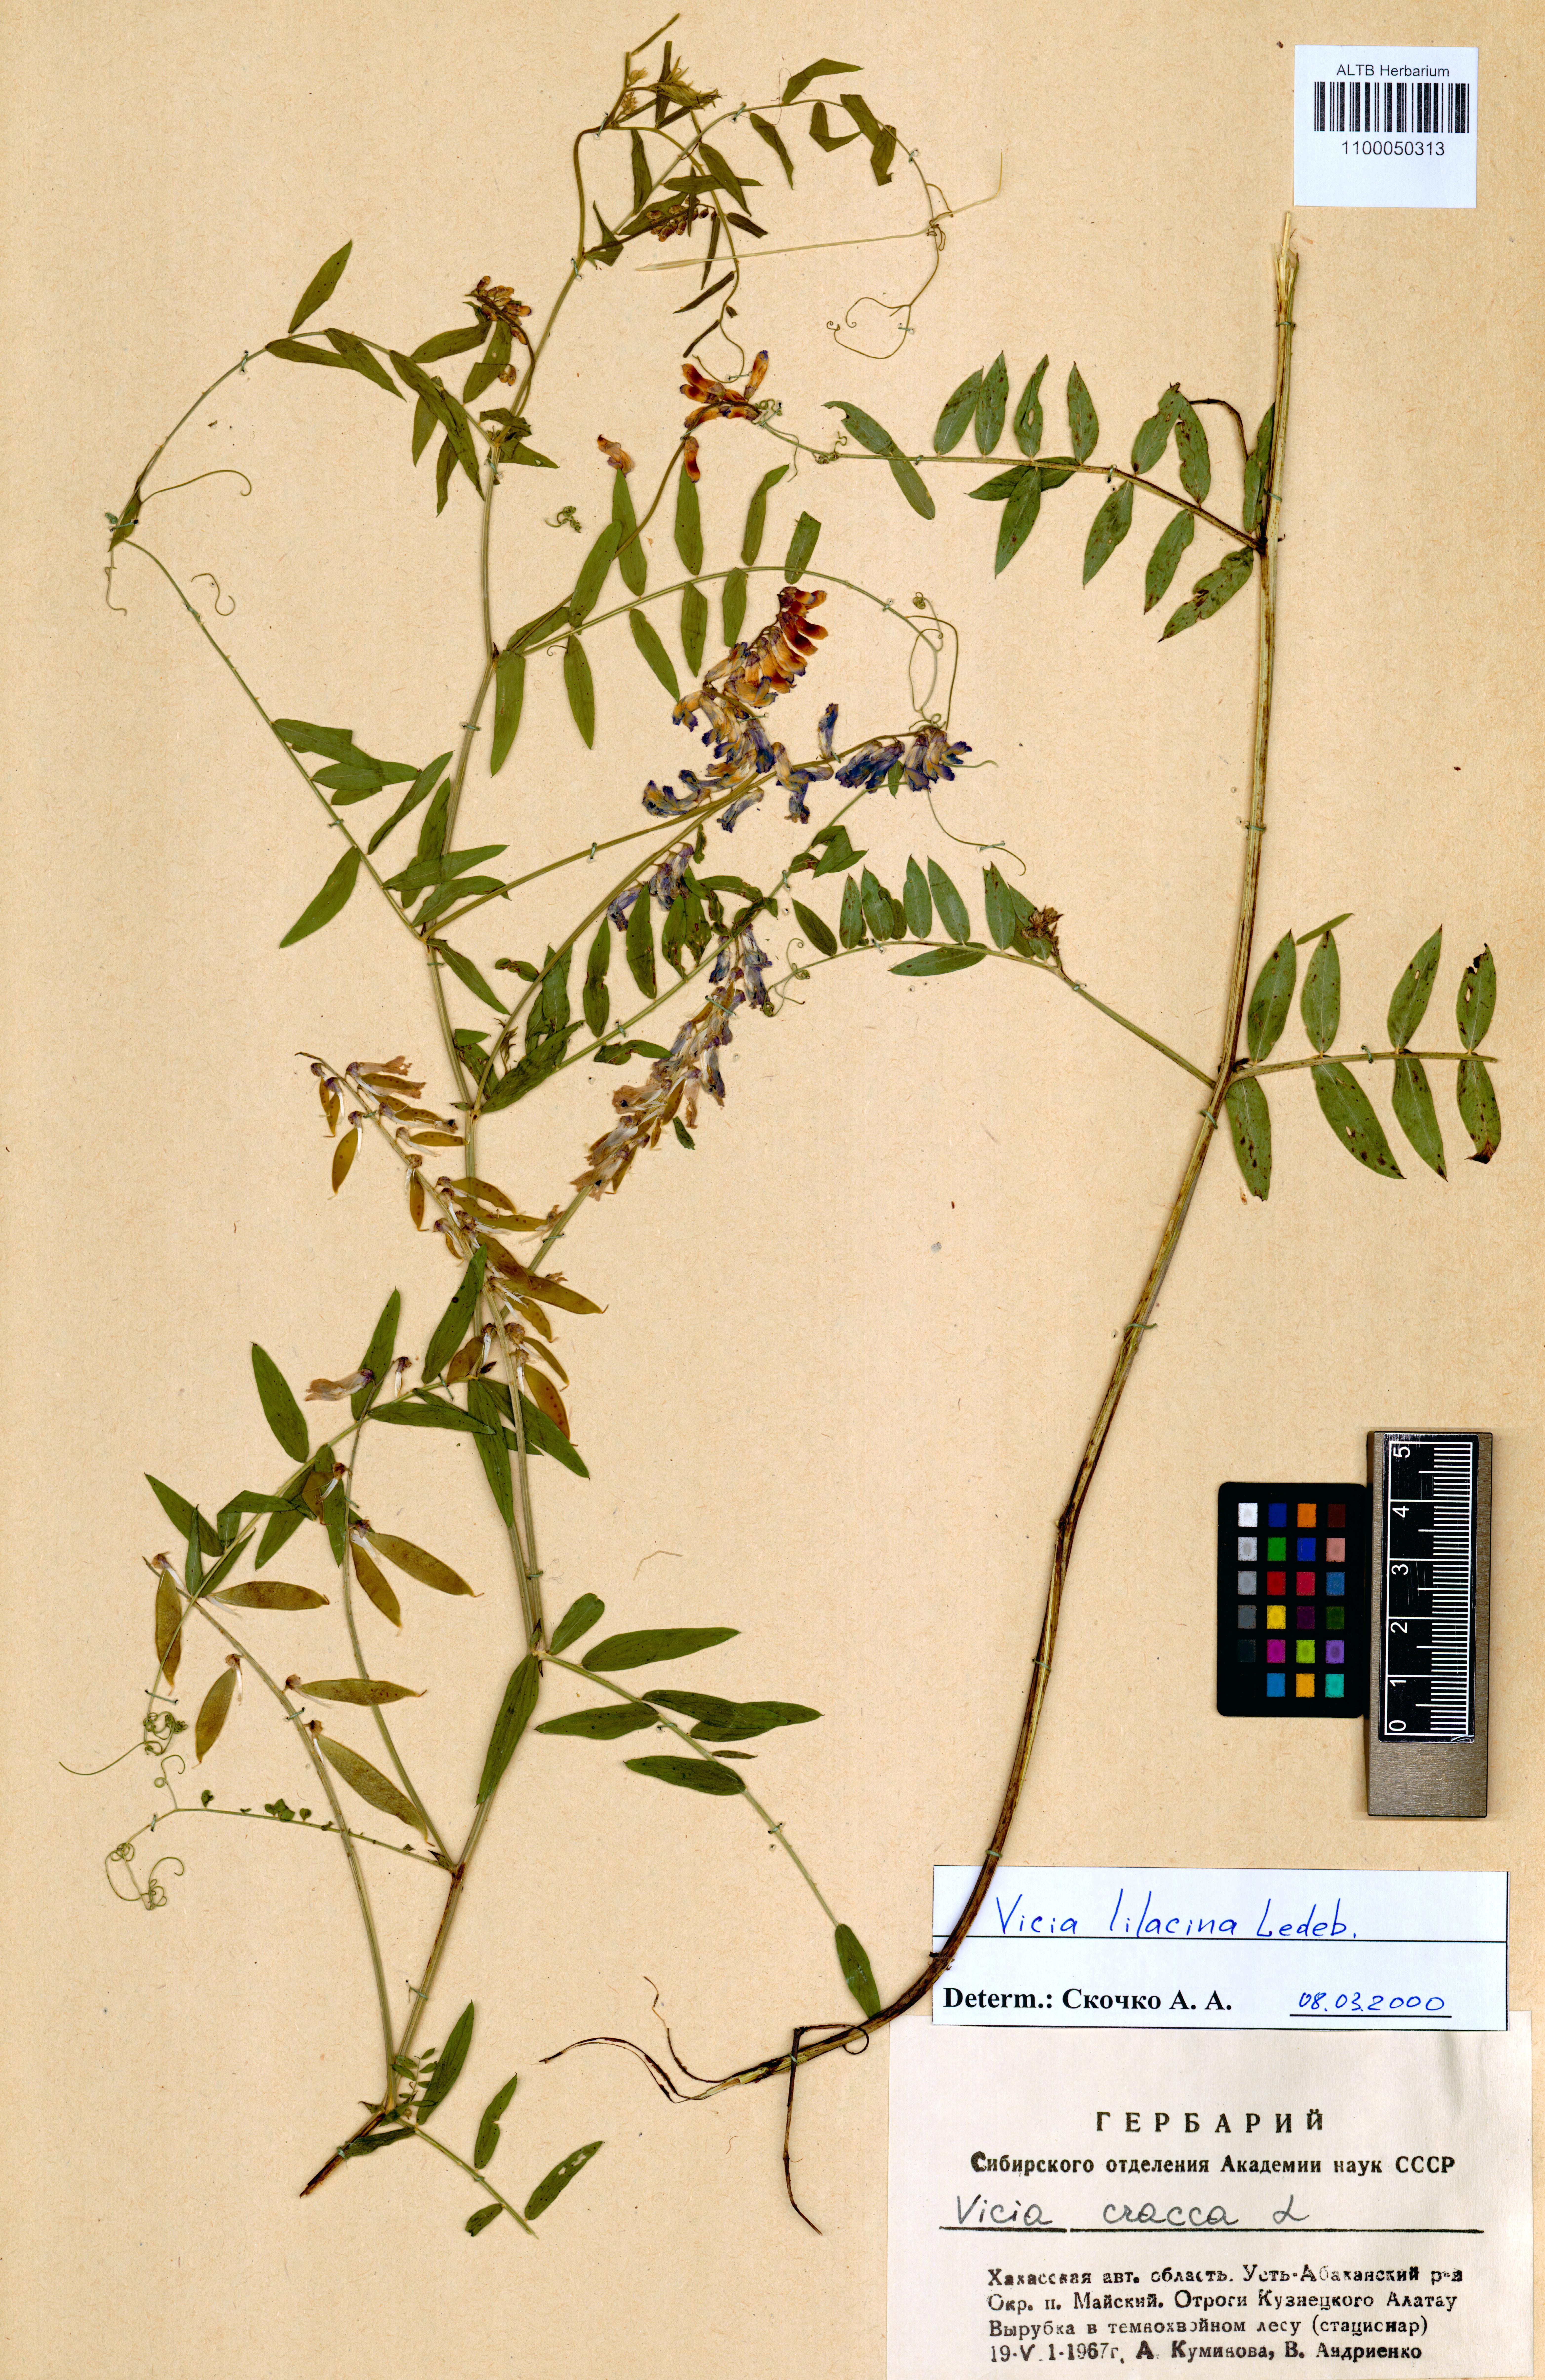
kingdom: Plantae
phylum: Tracheophyta
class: Magnoliopsida
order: Fabales
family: Fabaceae
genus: Vicia
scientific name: Vicia lilacina
